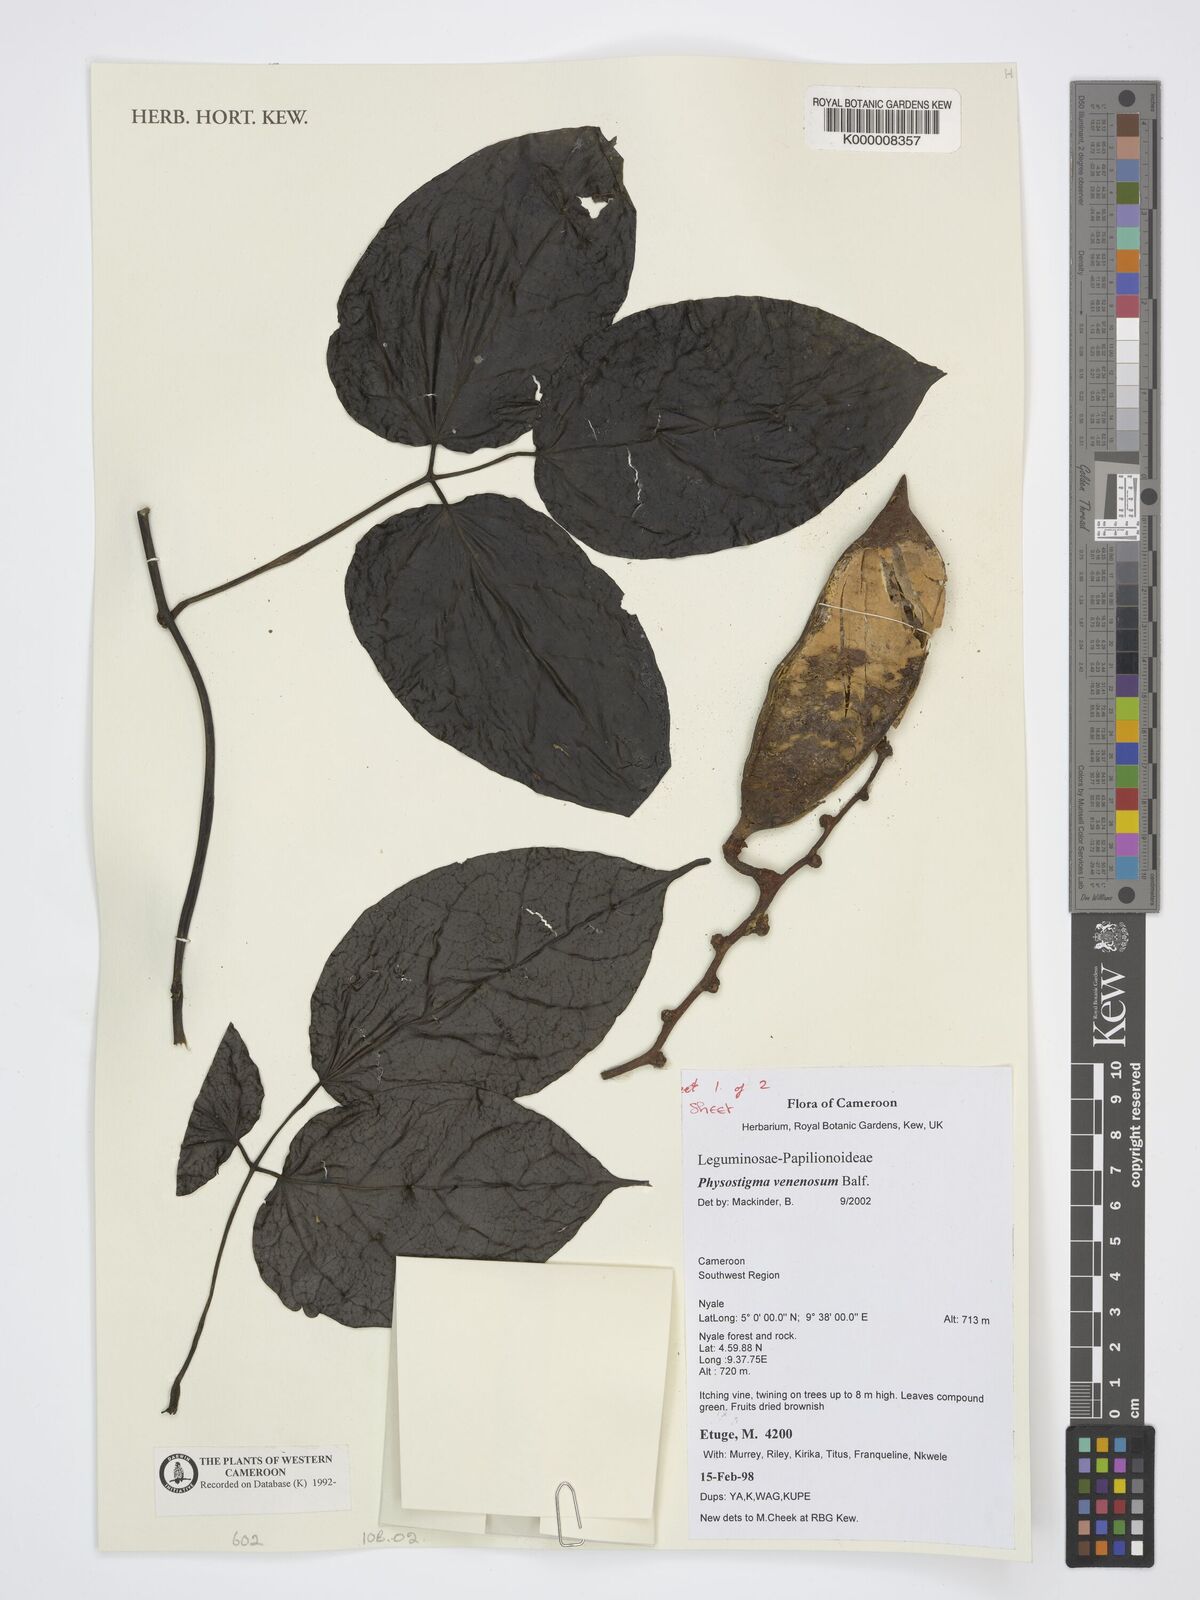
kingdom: Plantae
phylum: Tracheophyta
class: Magnoliopsida
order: Fabales
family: Fabaceae
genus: Physostigma
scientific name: Physostigma venenosum
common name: Calabar-bean
